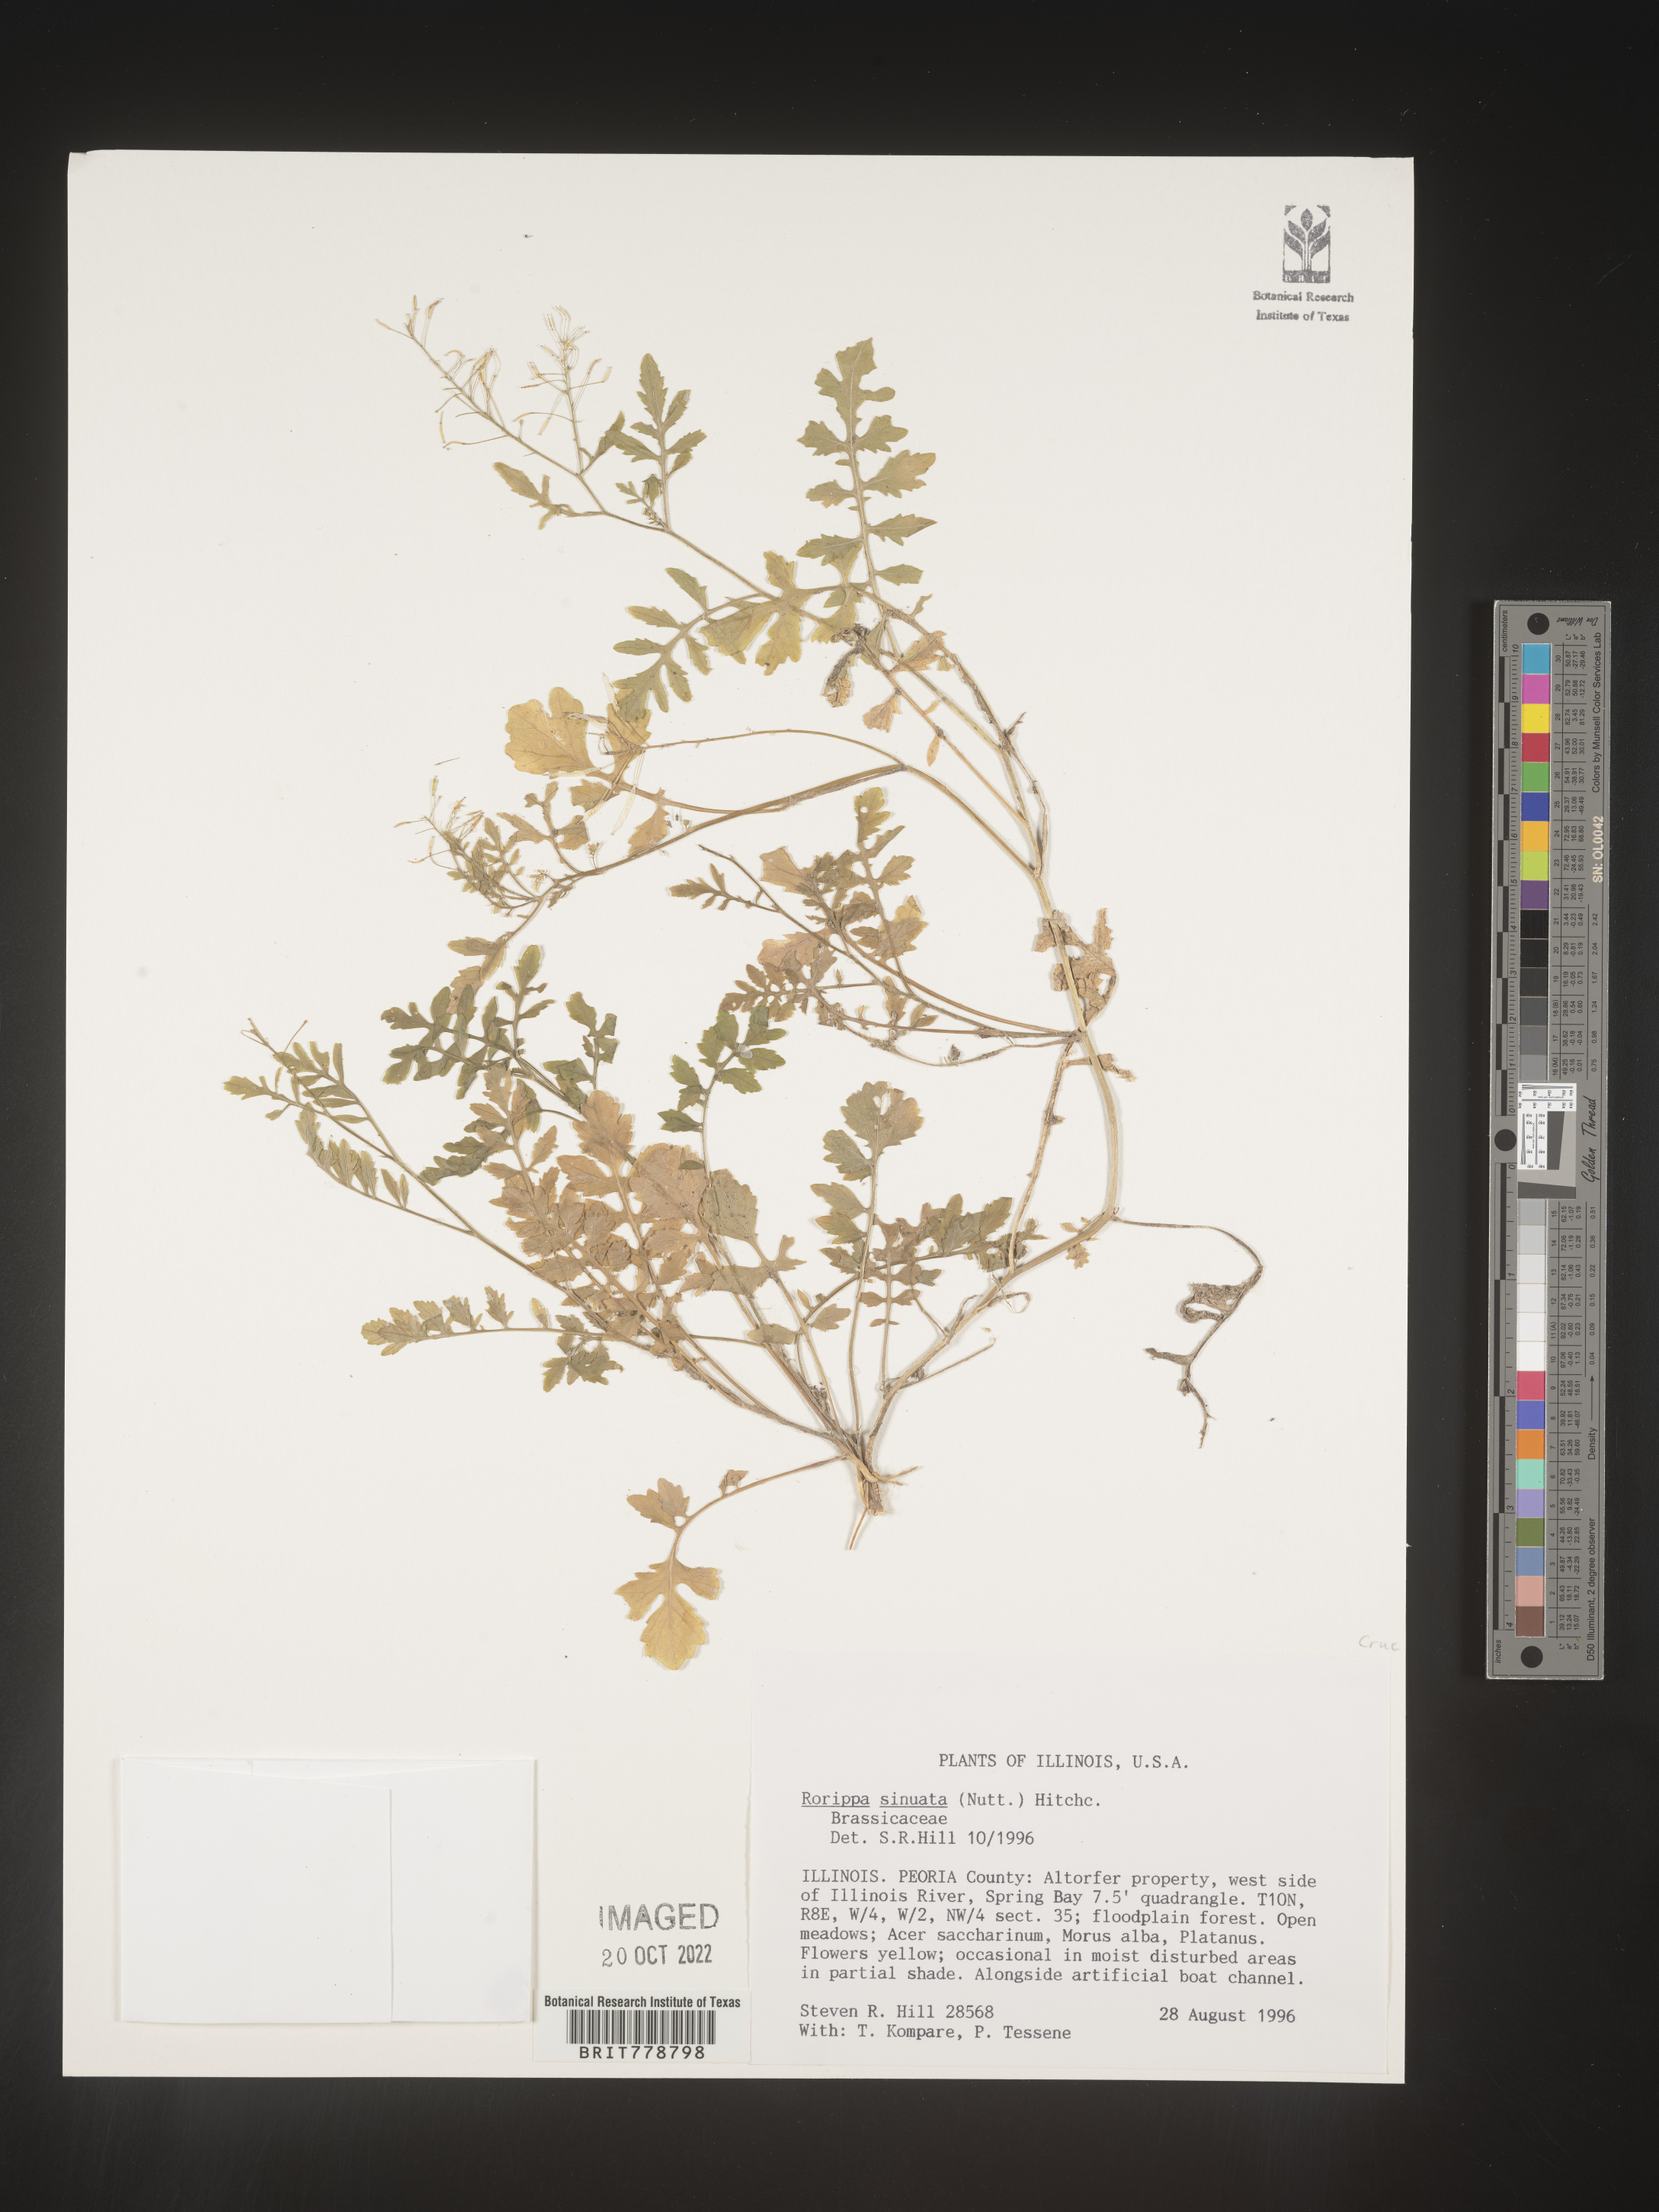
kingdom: Plantae
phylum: Tracheophyta
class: Magnoliopsida
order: Brassicales
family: Brassicaceae
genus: Rorippa
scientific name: Rorippa sinuata
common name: Spread yellow cress
